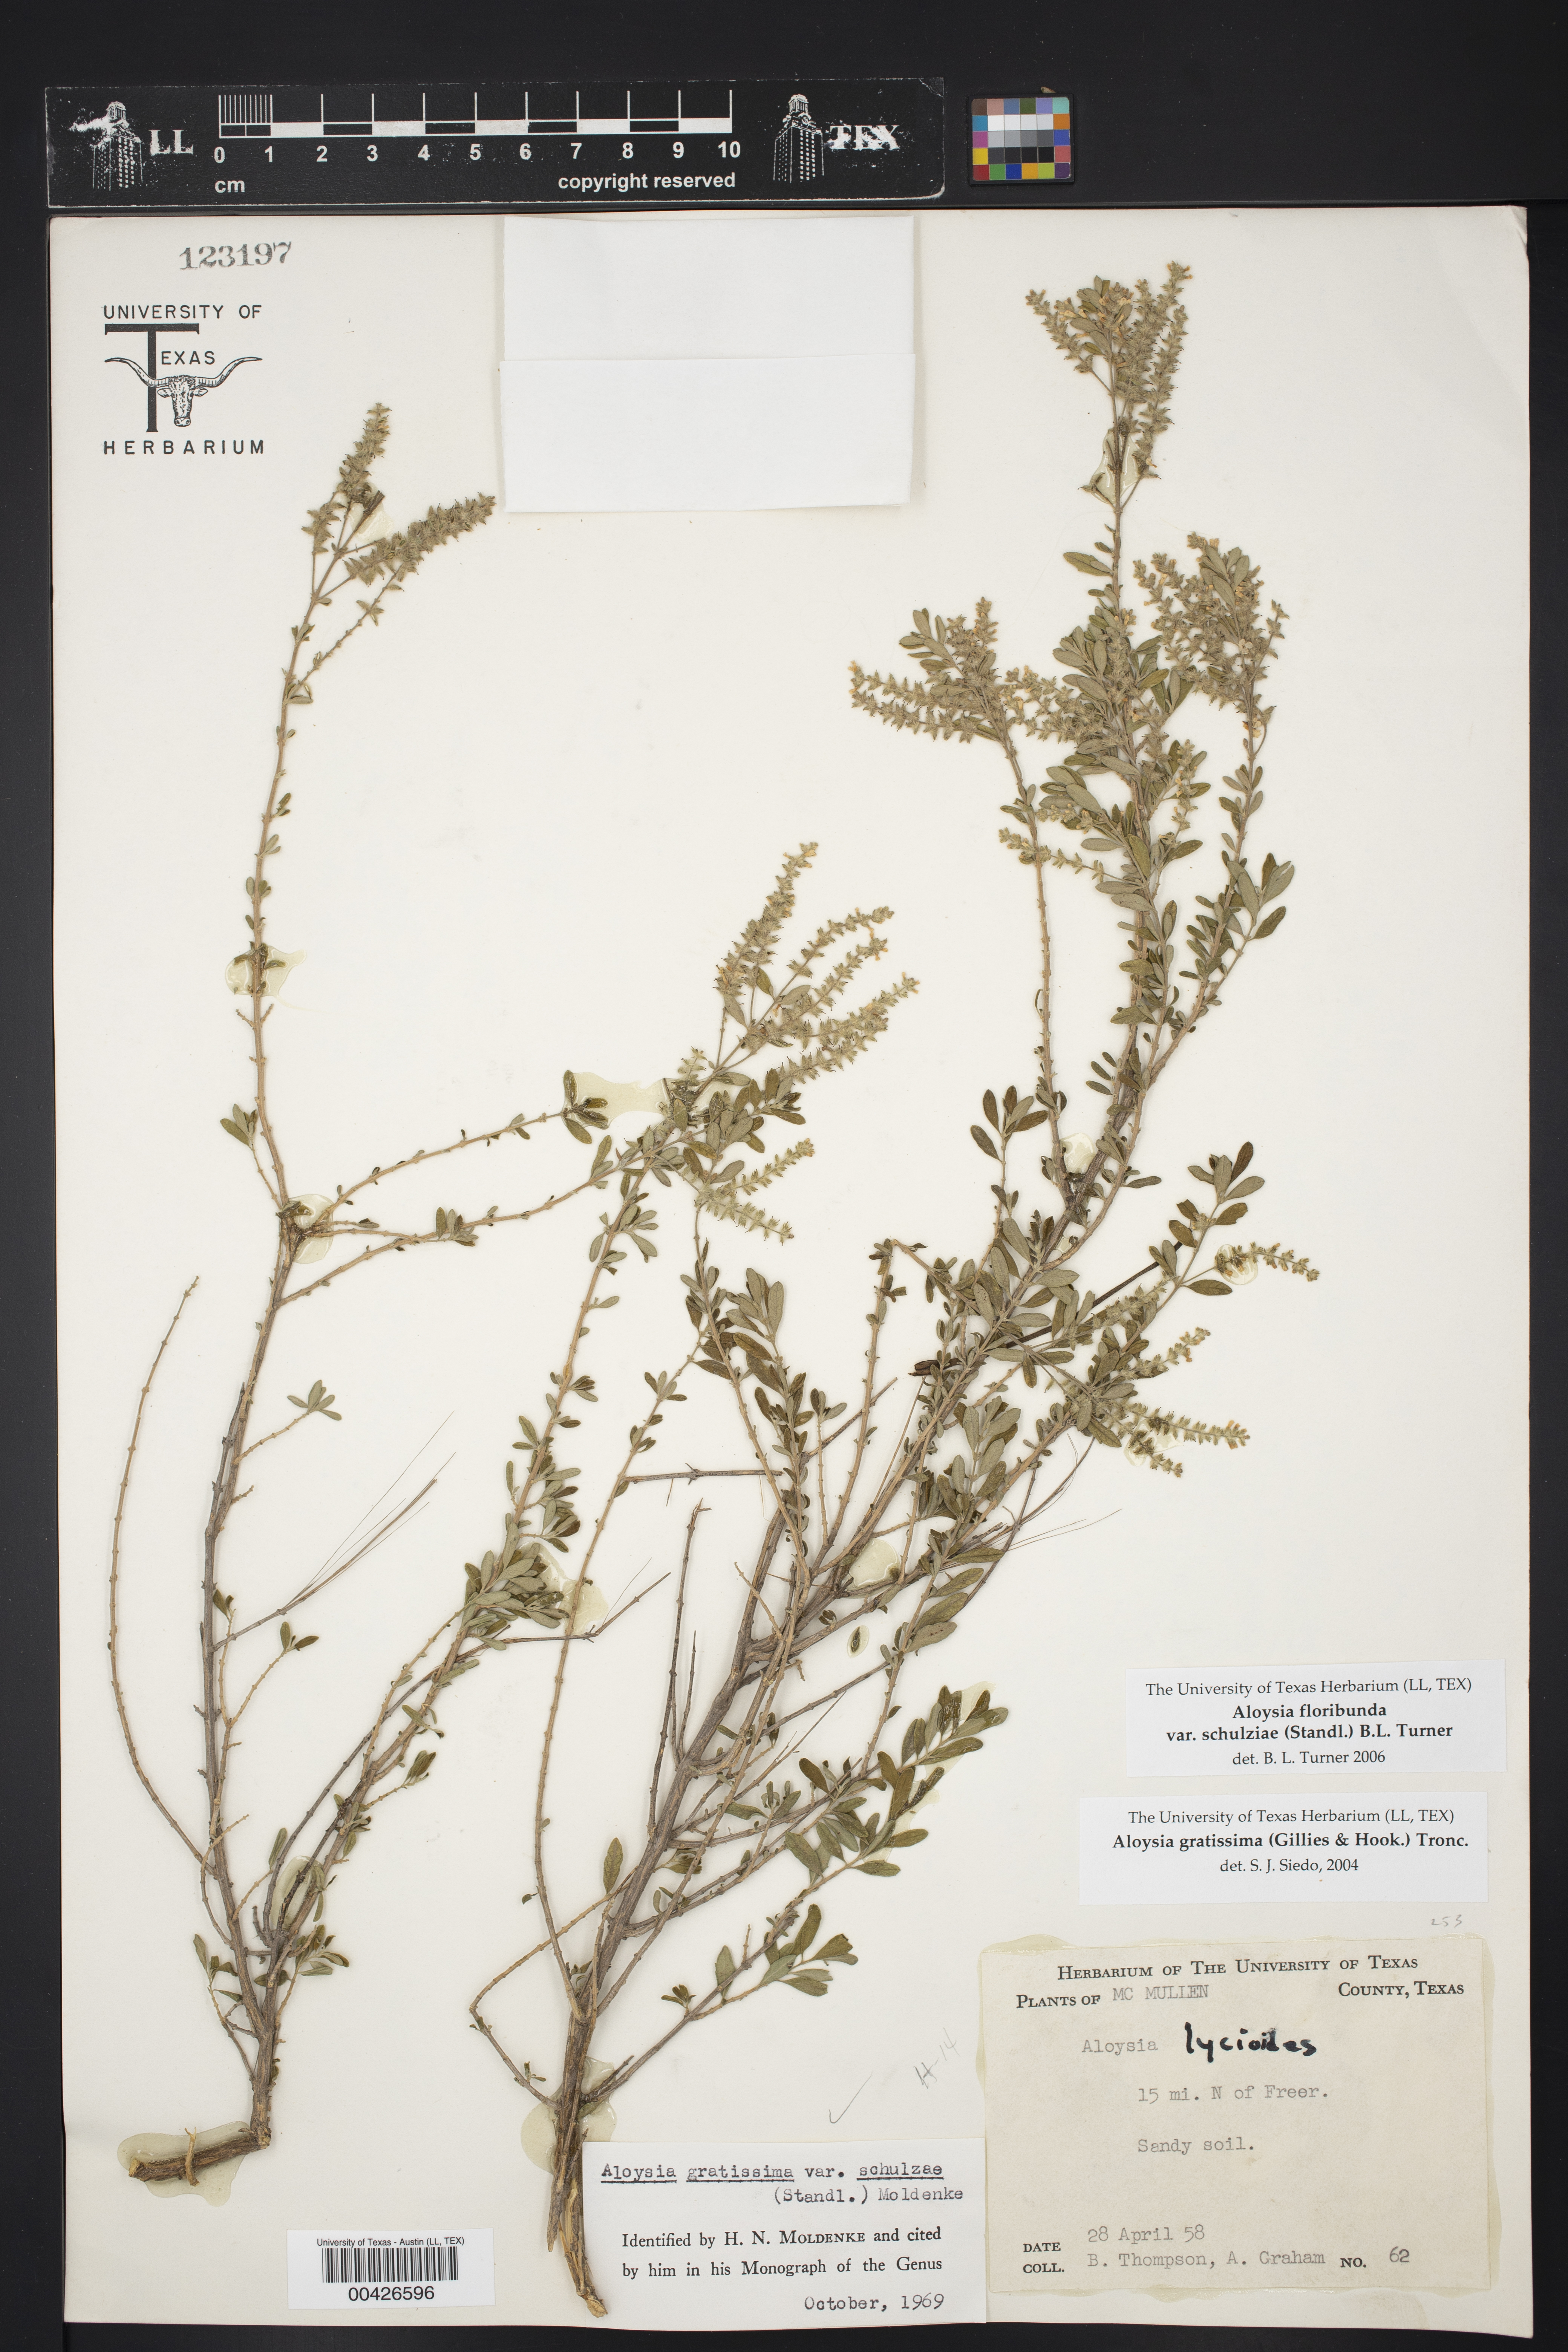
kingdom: Plantae
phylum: Tracheophyta
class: Magnoliopsida
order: Lamiales
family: Verbenaceae
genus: Aloysia
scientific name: Aloysia gratissima
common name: Common bee-brush
